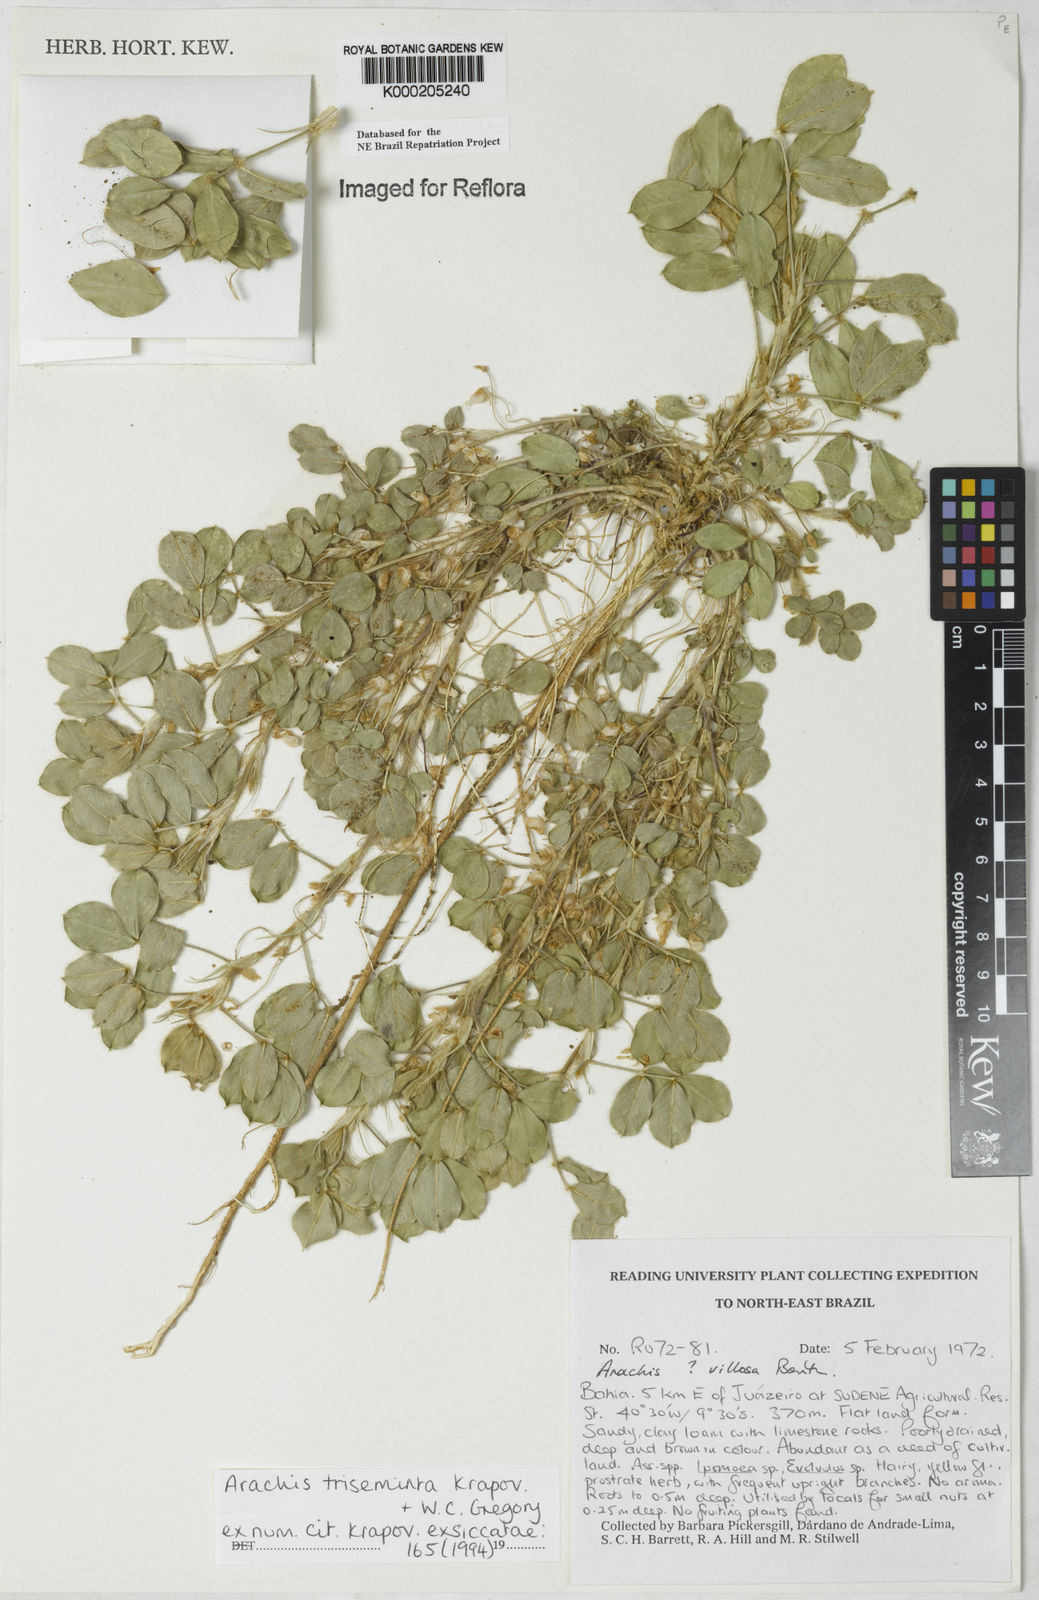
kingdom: Plantae
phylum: Tracheophyta
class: Magnoliopsida
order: Fabales
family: Fabaceae
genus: Arachis
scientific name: Arachis triseminata
